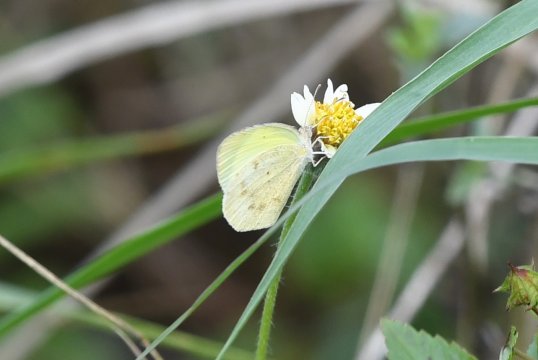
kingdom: Animalia
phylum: Arthropoda
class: Insecta
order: Lepidoptera
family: Pieridae
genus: Eurema
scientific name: Eurema daira
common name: Barred Yellow
